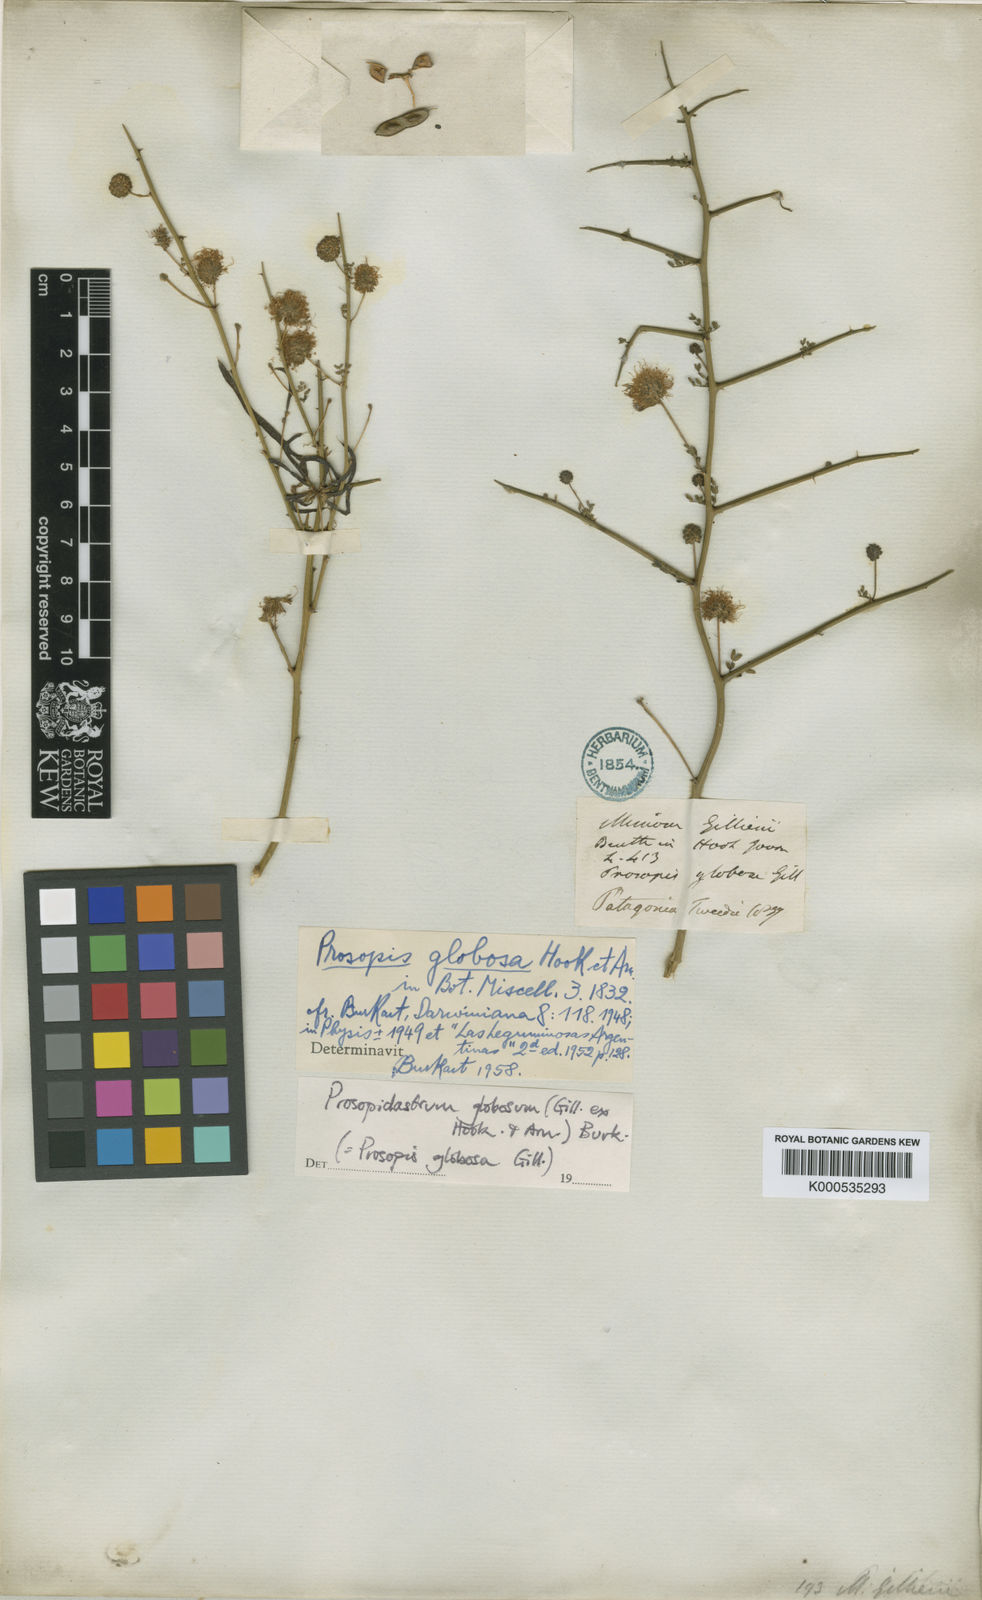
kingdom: Plantae
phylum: Tracheophyta
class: Magnoliopsida
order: Fabales
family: Fabaceae
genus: Prosopidastrum
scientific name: Prosopidastrum globosum
